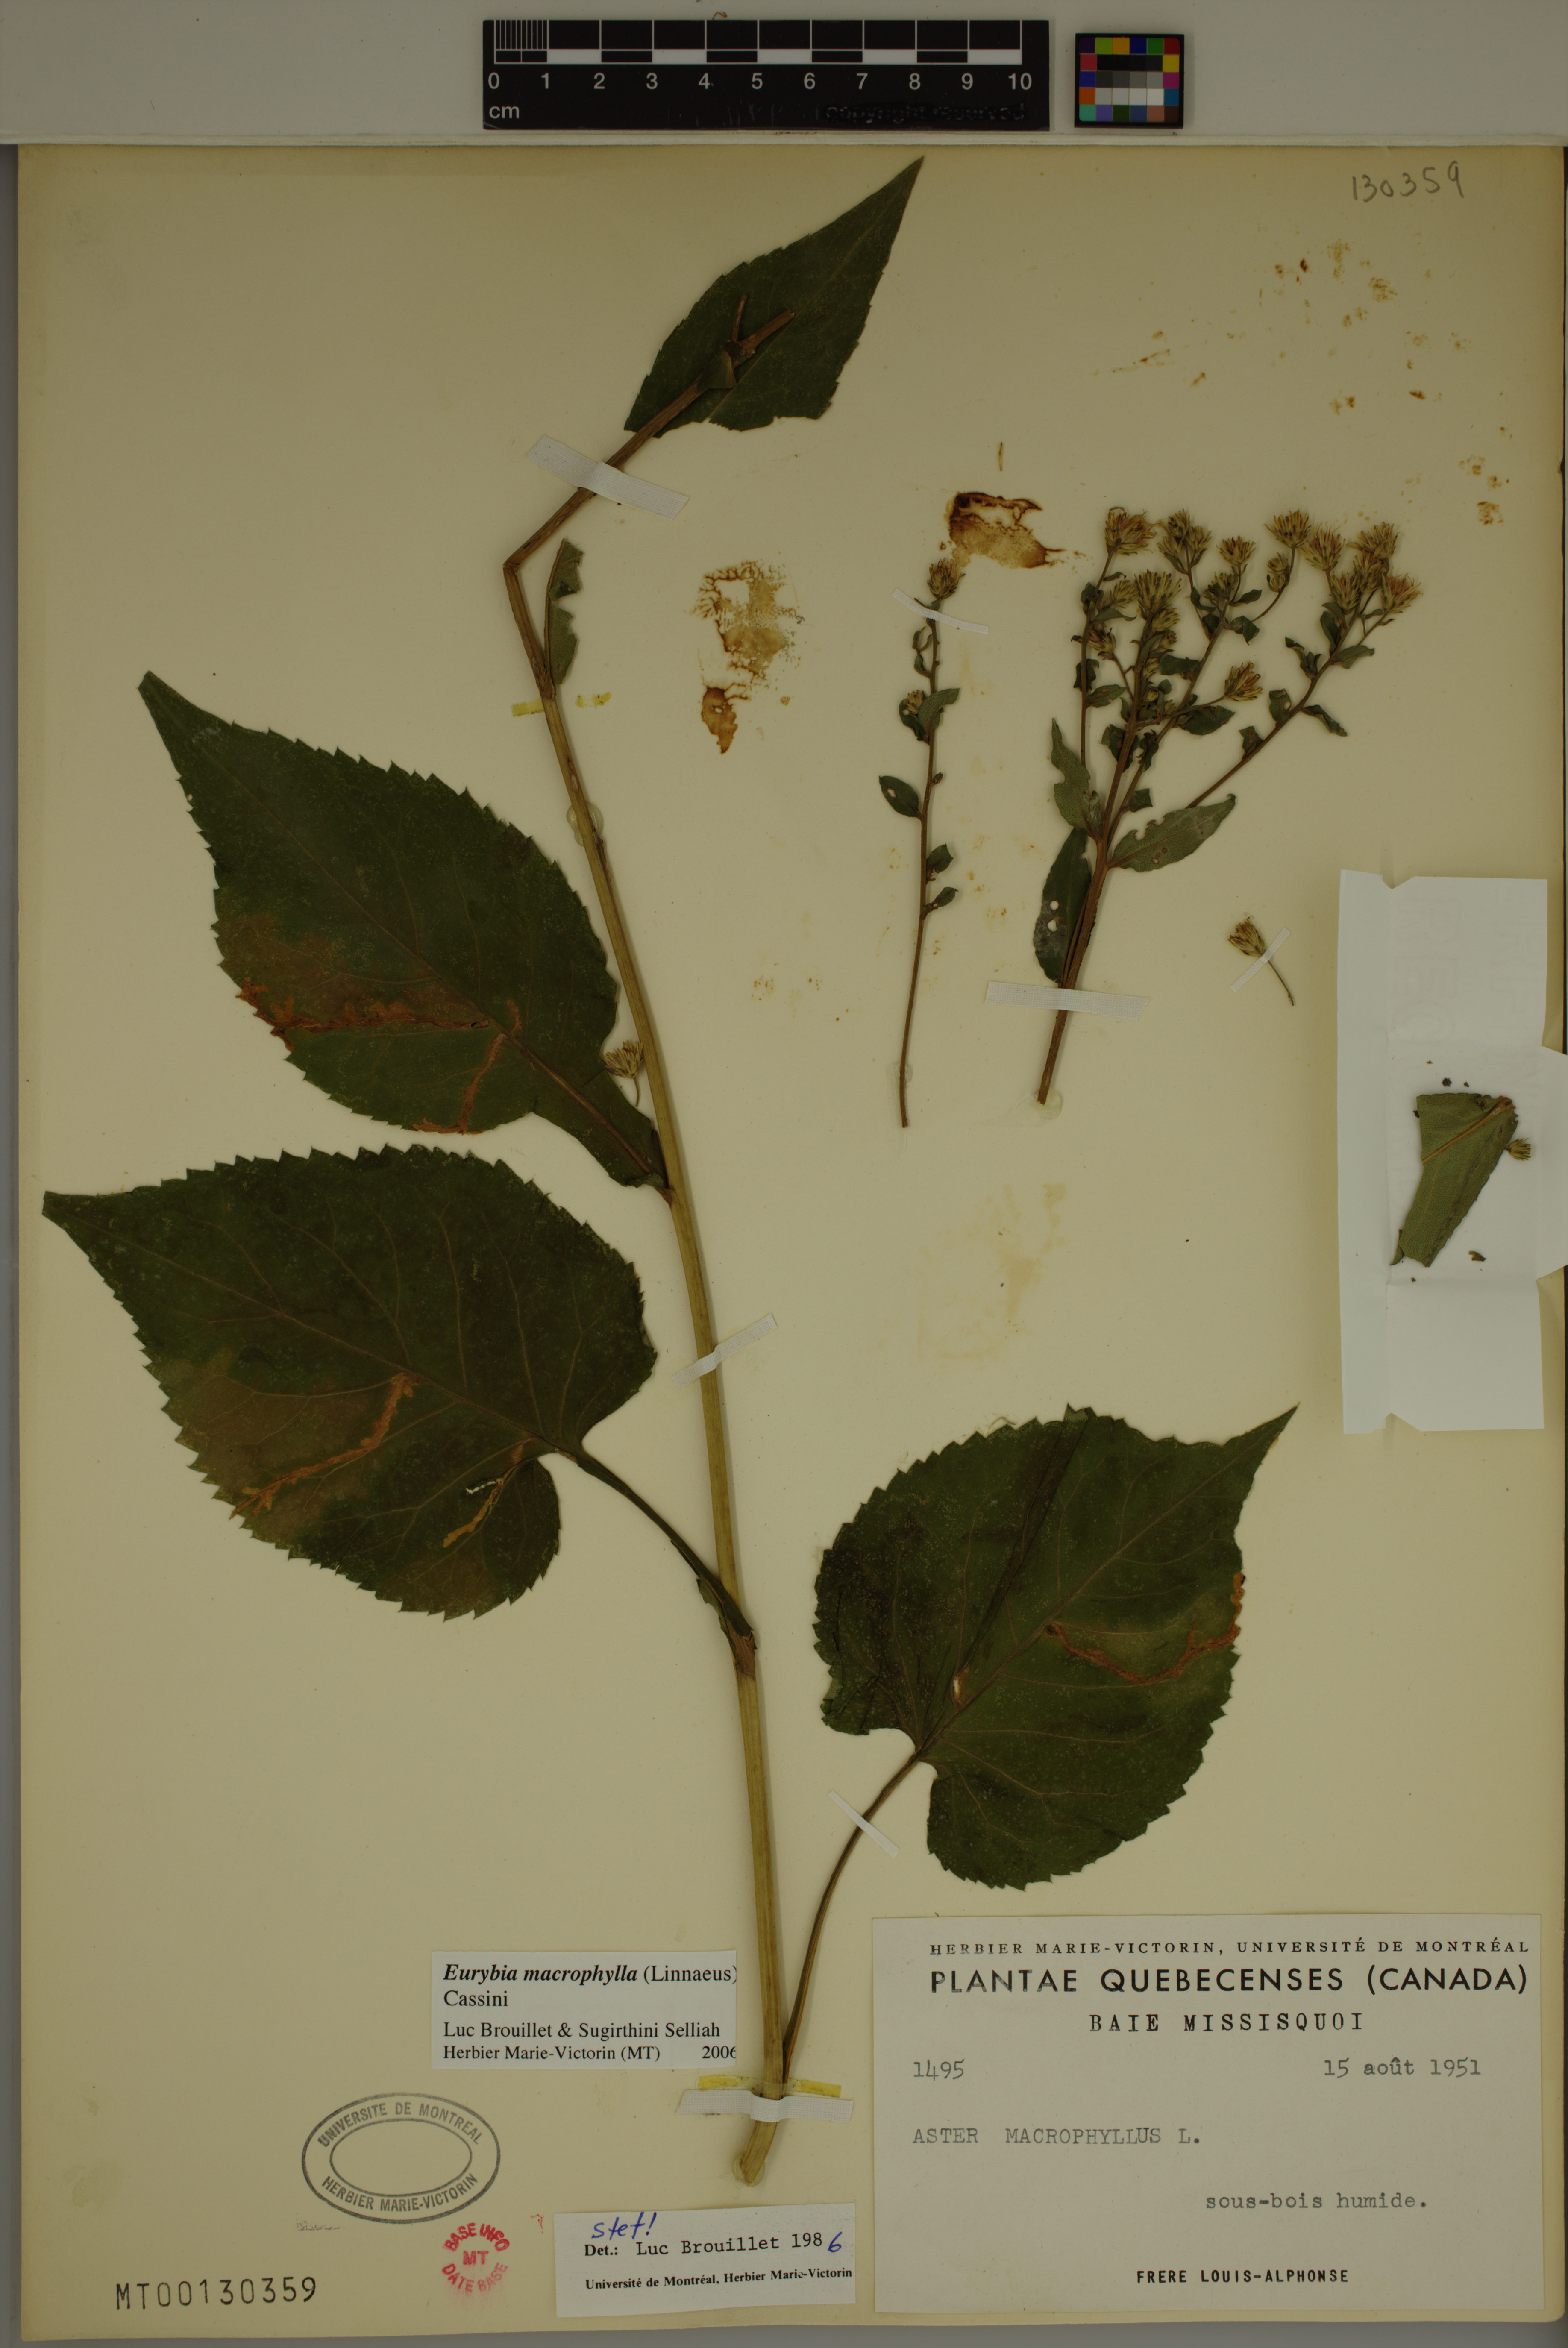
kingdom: Plantae
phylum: Tracheophyta
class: Magnoliopsida
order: Asterales
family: Asteraceae
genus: Eurybia
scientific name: Eurybia macrophylla
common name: Big-leaved aster
